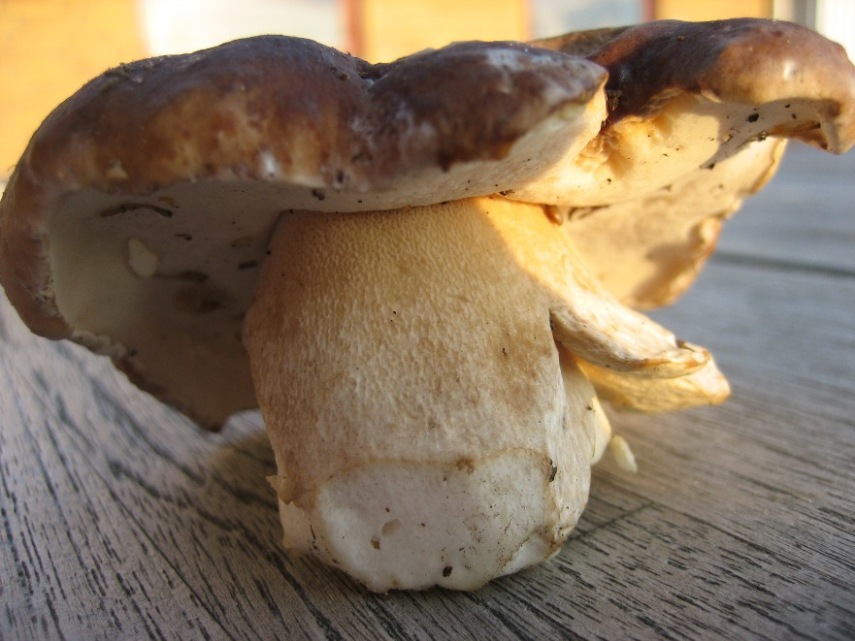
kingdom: Fungi
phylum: Basidiomycota
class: Agaricomycetes
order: Boletales
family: Boletaceae
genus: Boletus
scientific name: Boletus edulis
